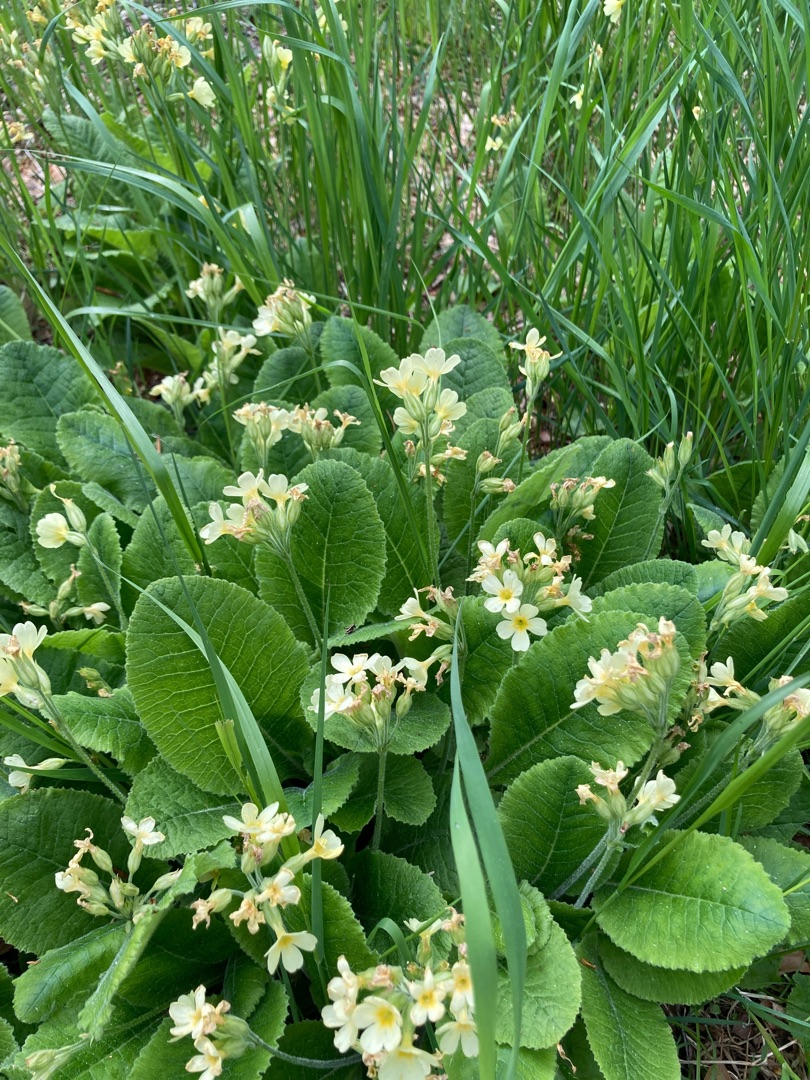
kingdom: Plantae
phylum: Tracheophyta
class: Magnoliopsida
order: Ericales
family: Primulaceae
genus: Primula
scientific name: Primula elatior
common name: Fladkravet kodriver
